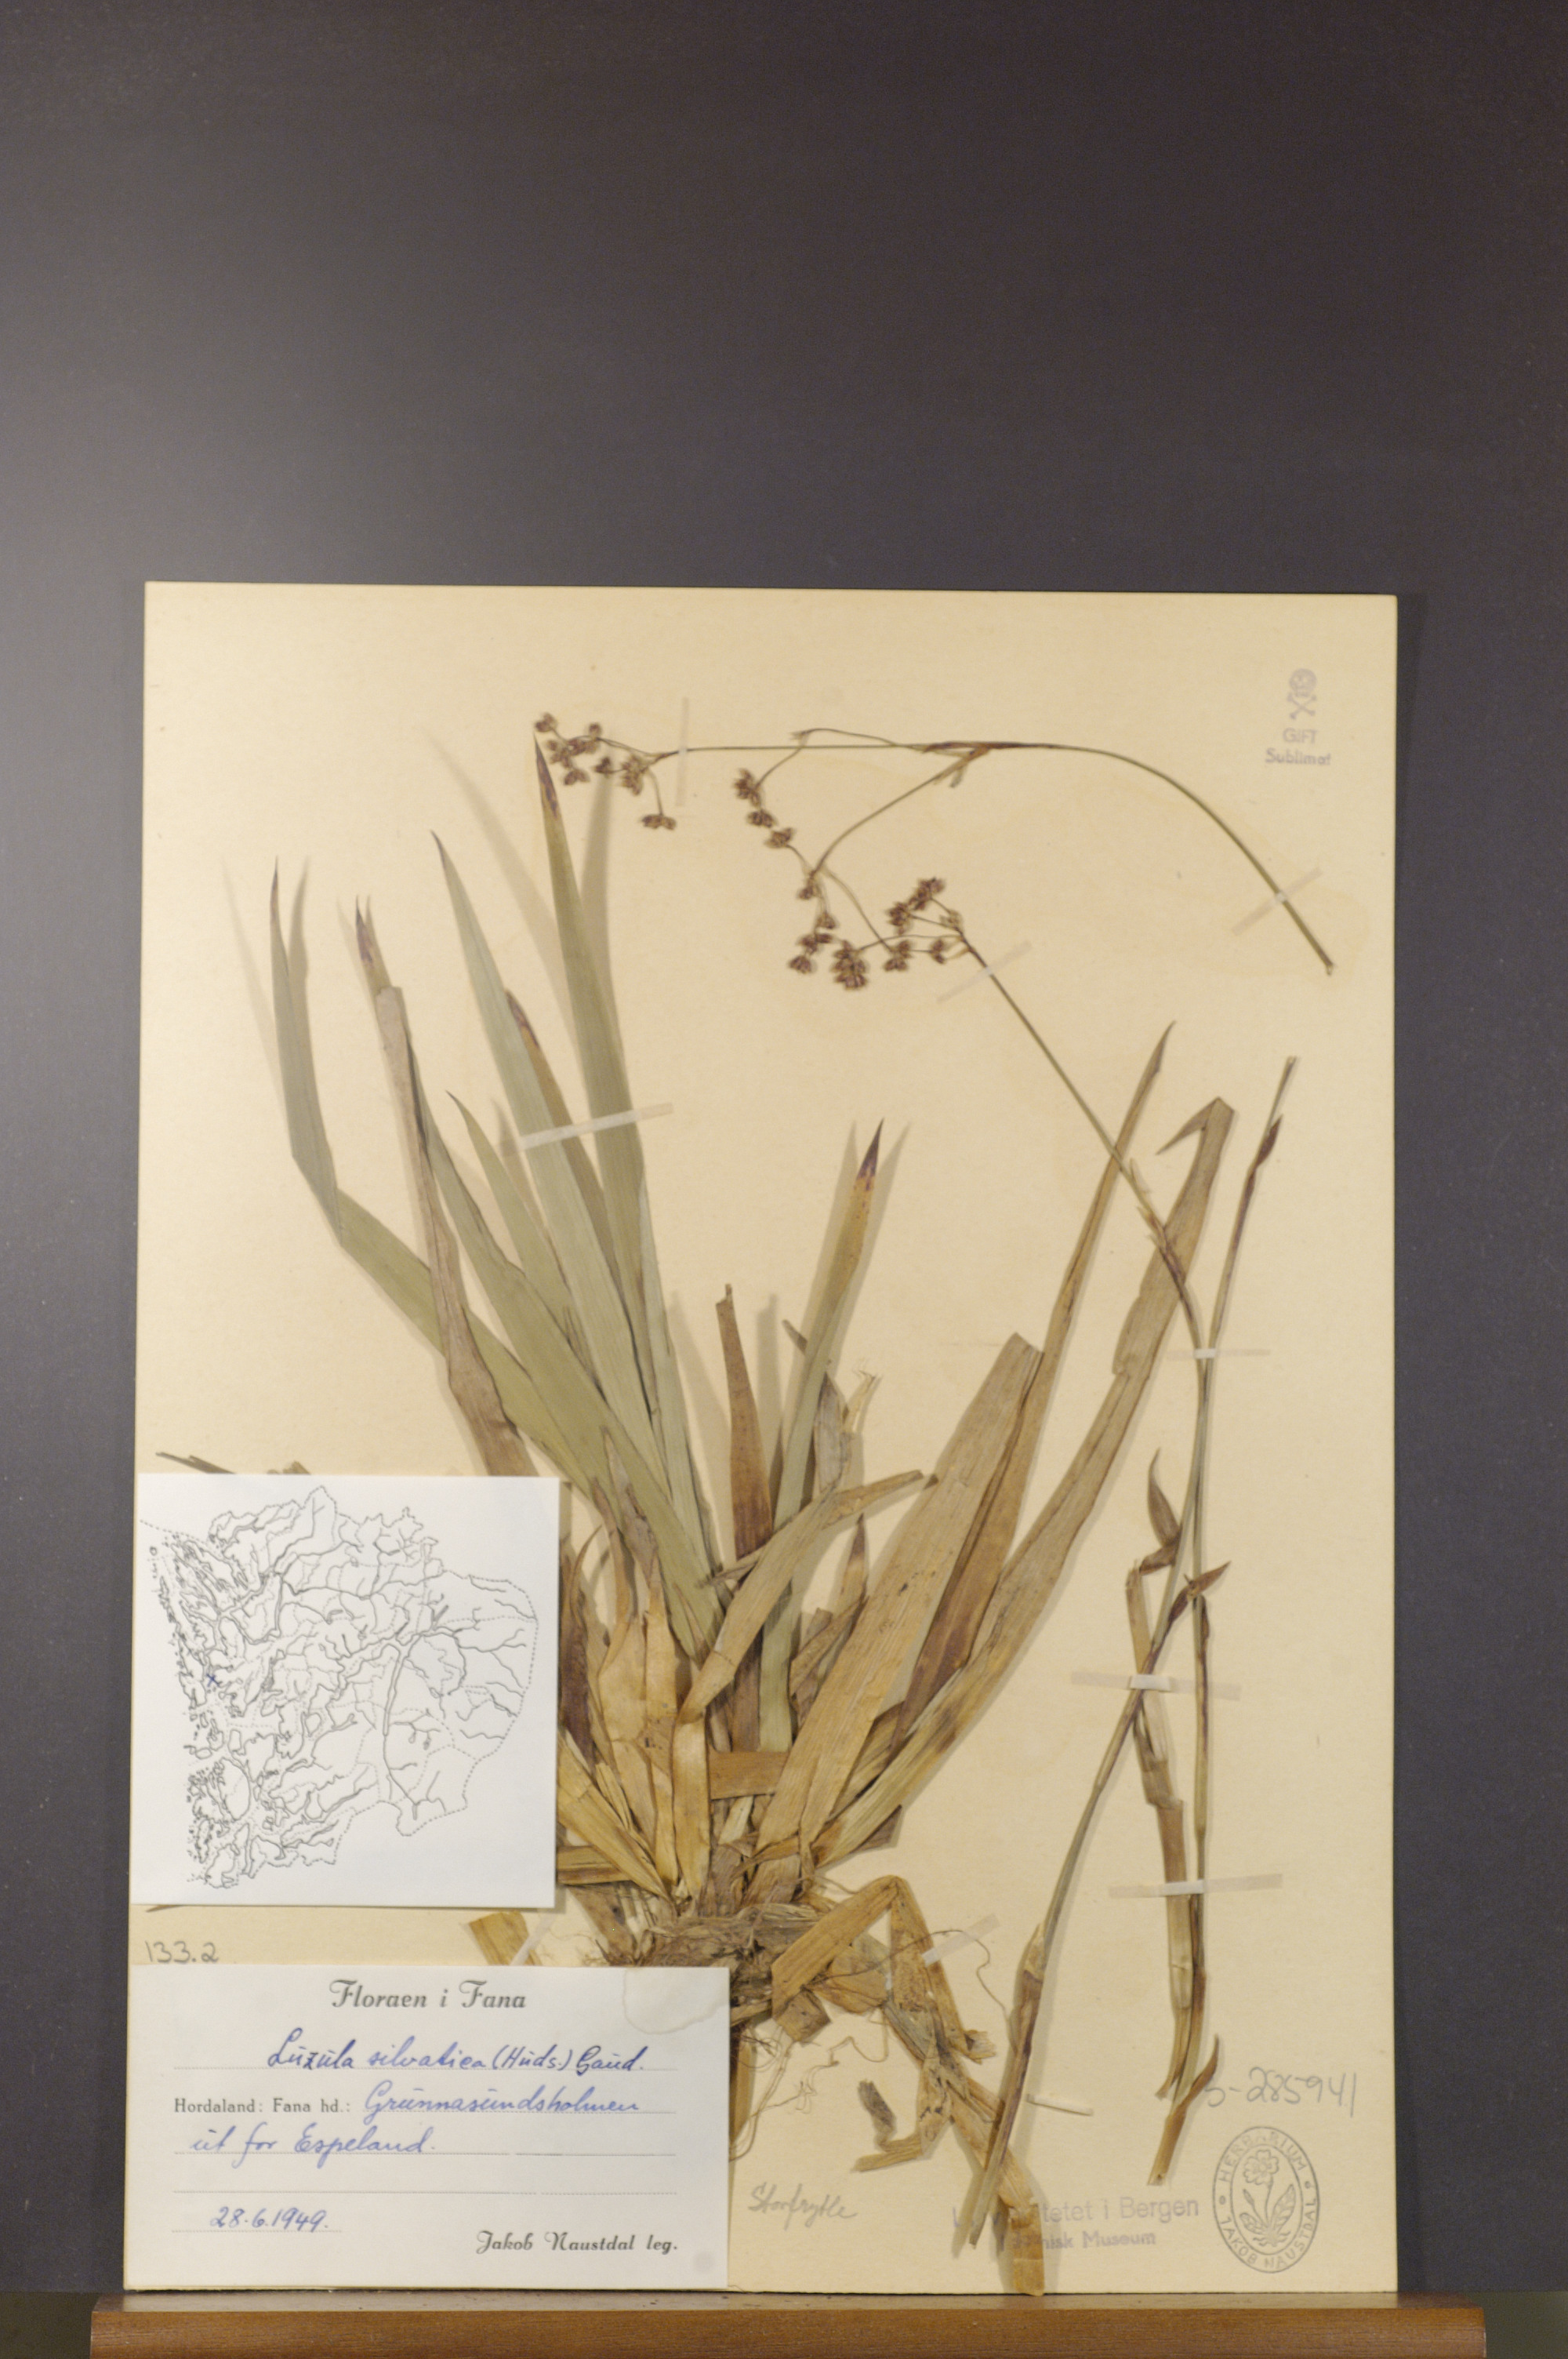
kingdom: Plantae
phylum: Tracheophyta
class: Liliopsida
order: Poales
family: Juncaceae
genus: Luzula
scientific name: Luzula sylvatica
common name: Great wood-rush
